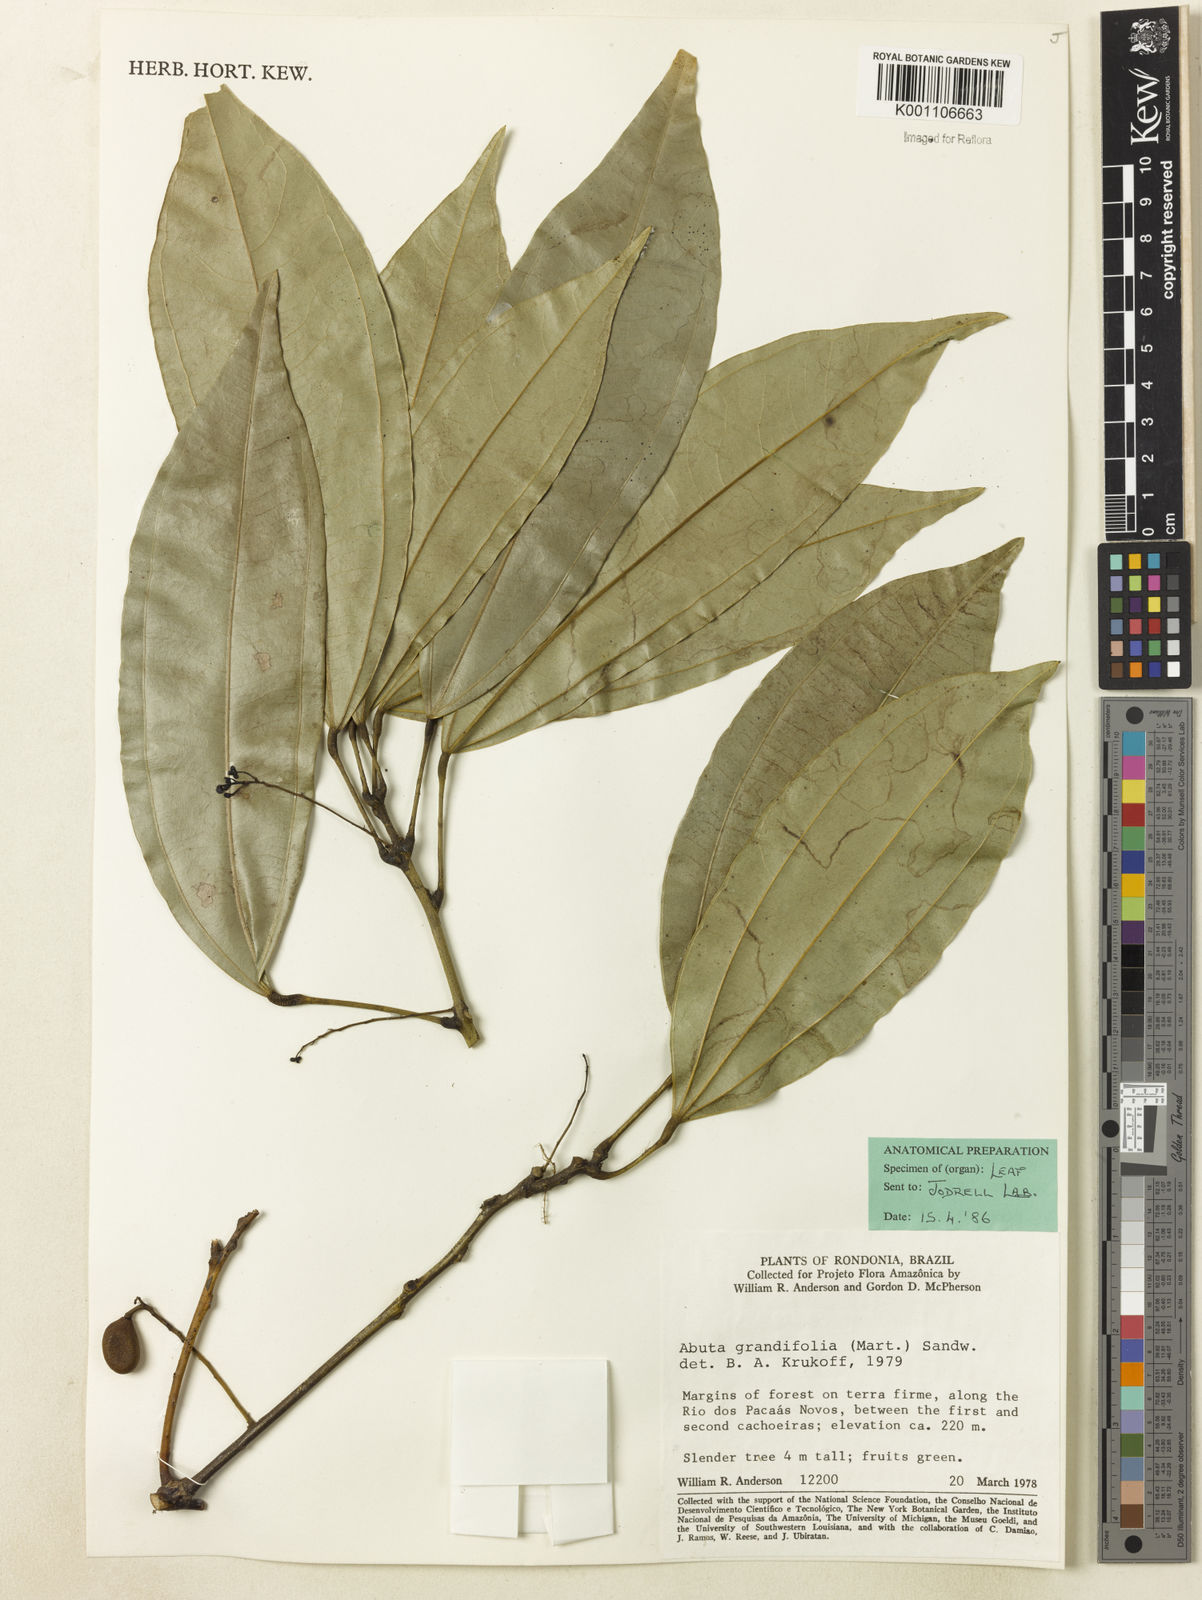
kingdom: Plantae
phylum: Tracheophyta
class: Magnoliopsida
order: Ranunculales
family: Menispermaceae
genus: Abuta
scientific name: Abuta grandifolia
